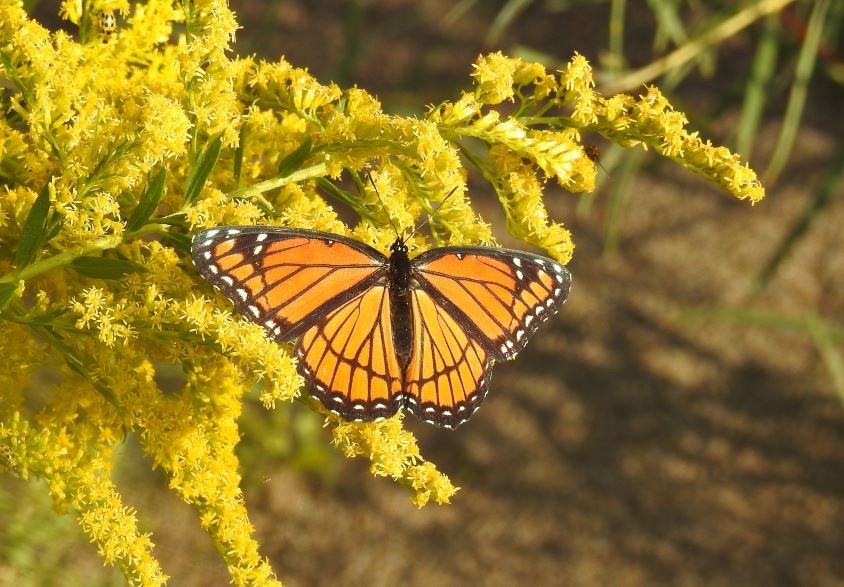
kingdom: Animalia
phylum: Arthropoda
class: Insecta
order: Lepidoptera
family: Nymphalidae
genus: Limenitis
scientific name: Limenitis archippus
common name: Viceroy
